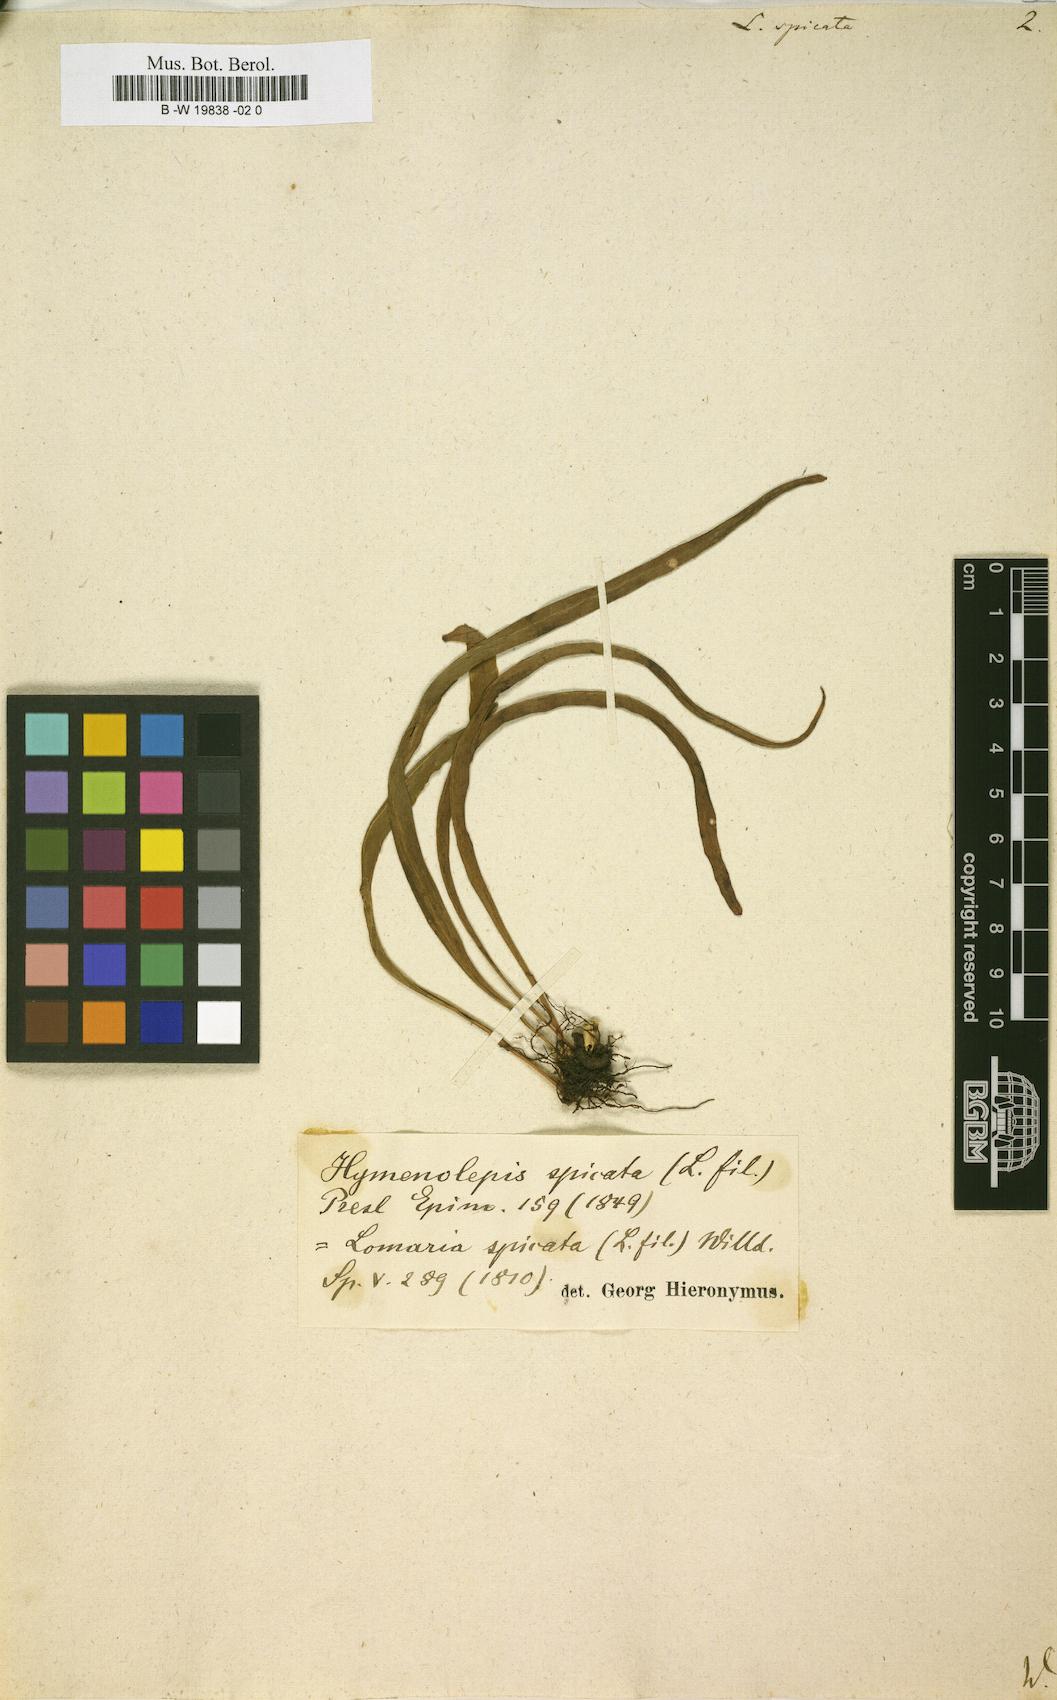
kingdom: Plantae
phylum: Tracheophyta
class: Polypodiopsida
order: Polypodiales
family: Polypodiaceae
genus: Lepisorus
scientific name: Lepisorus spicatus
